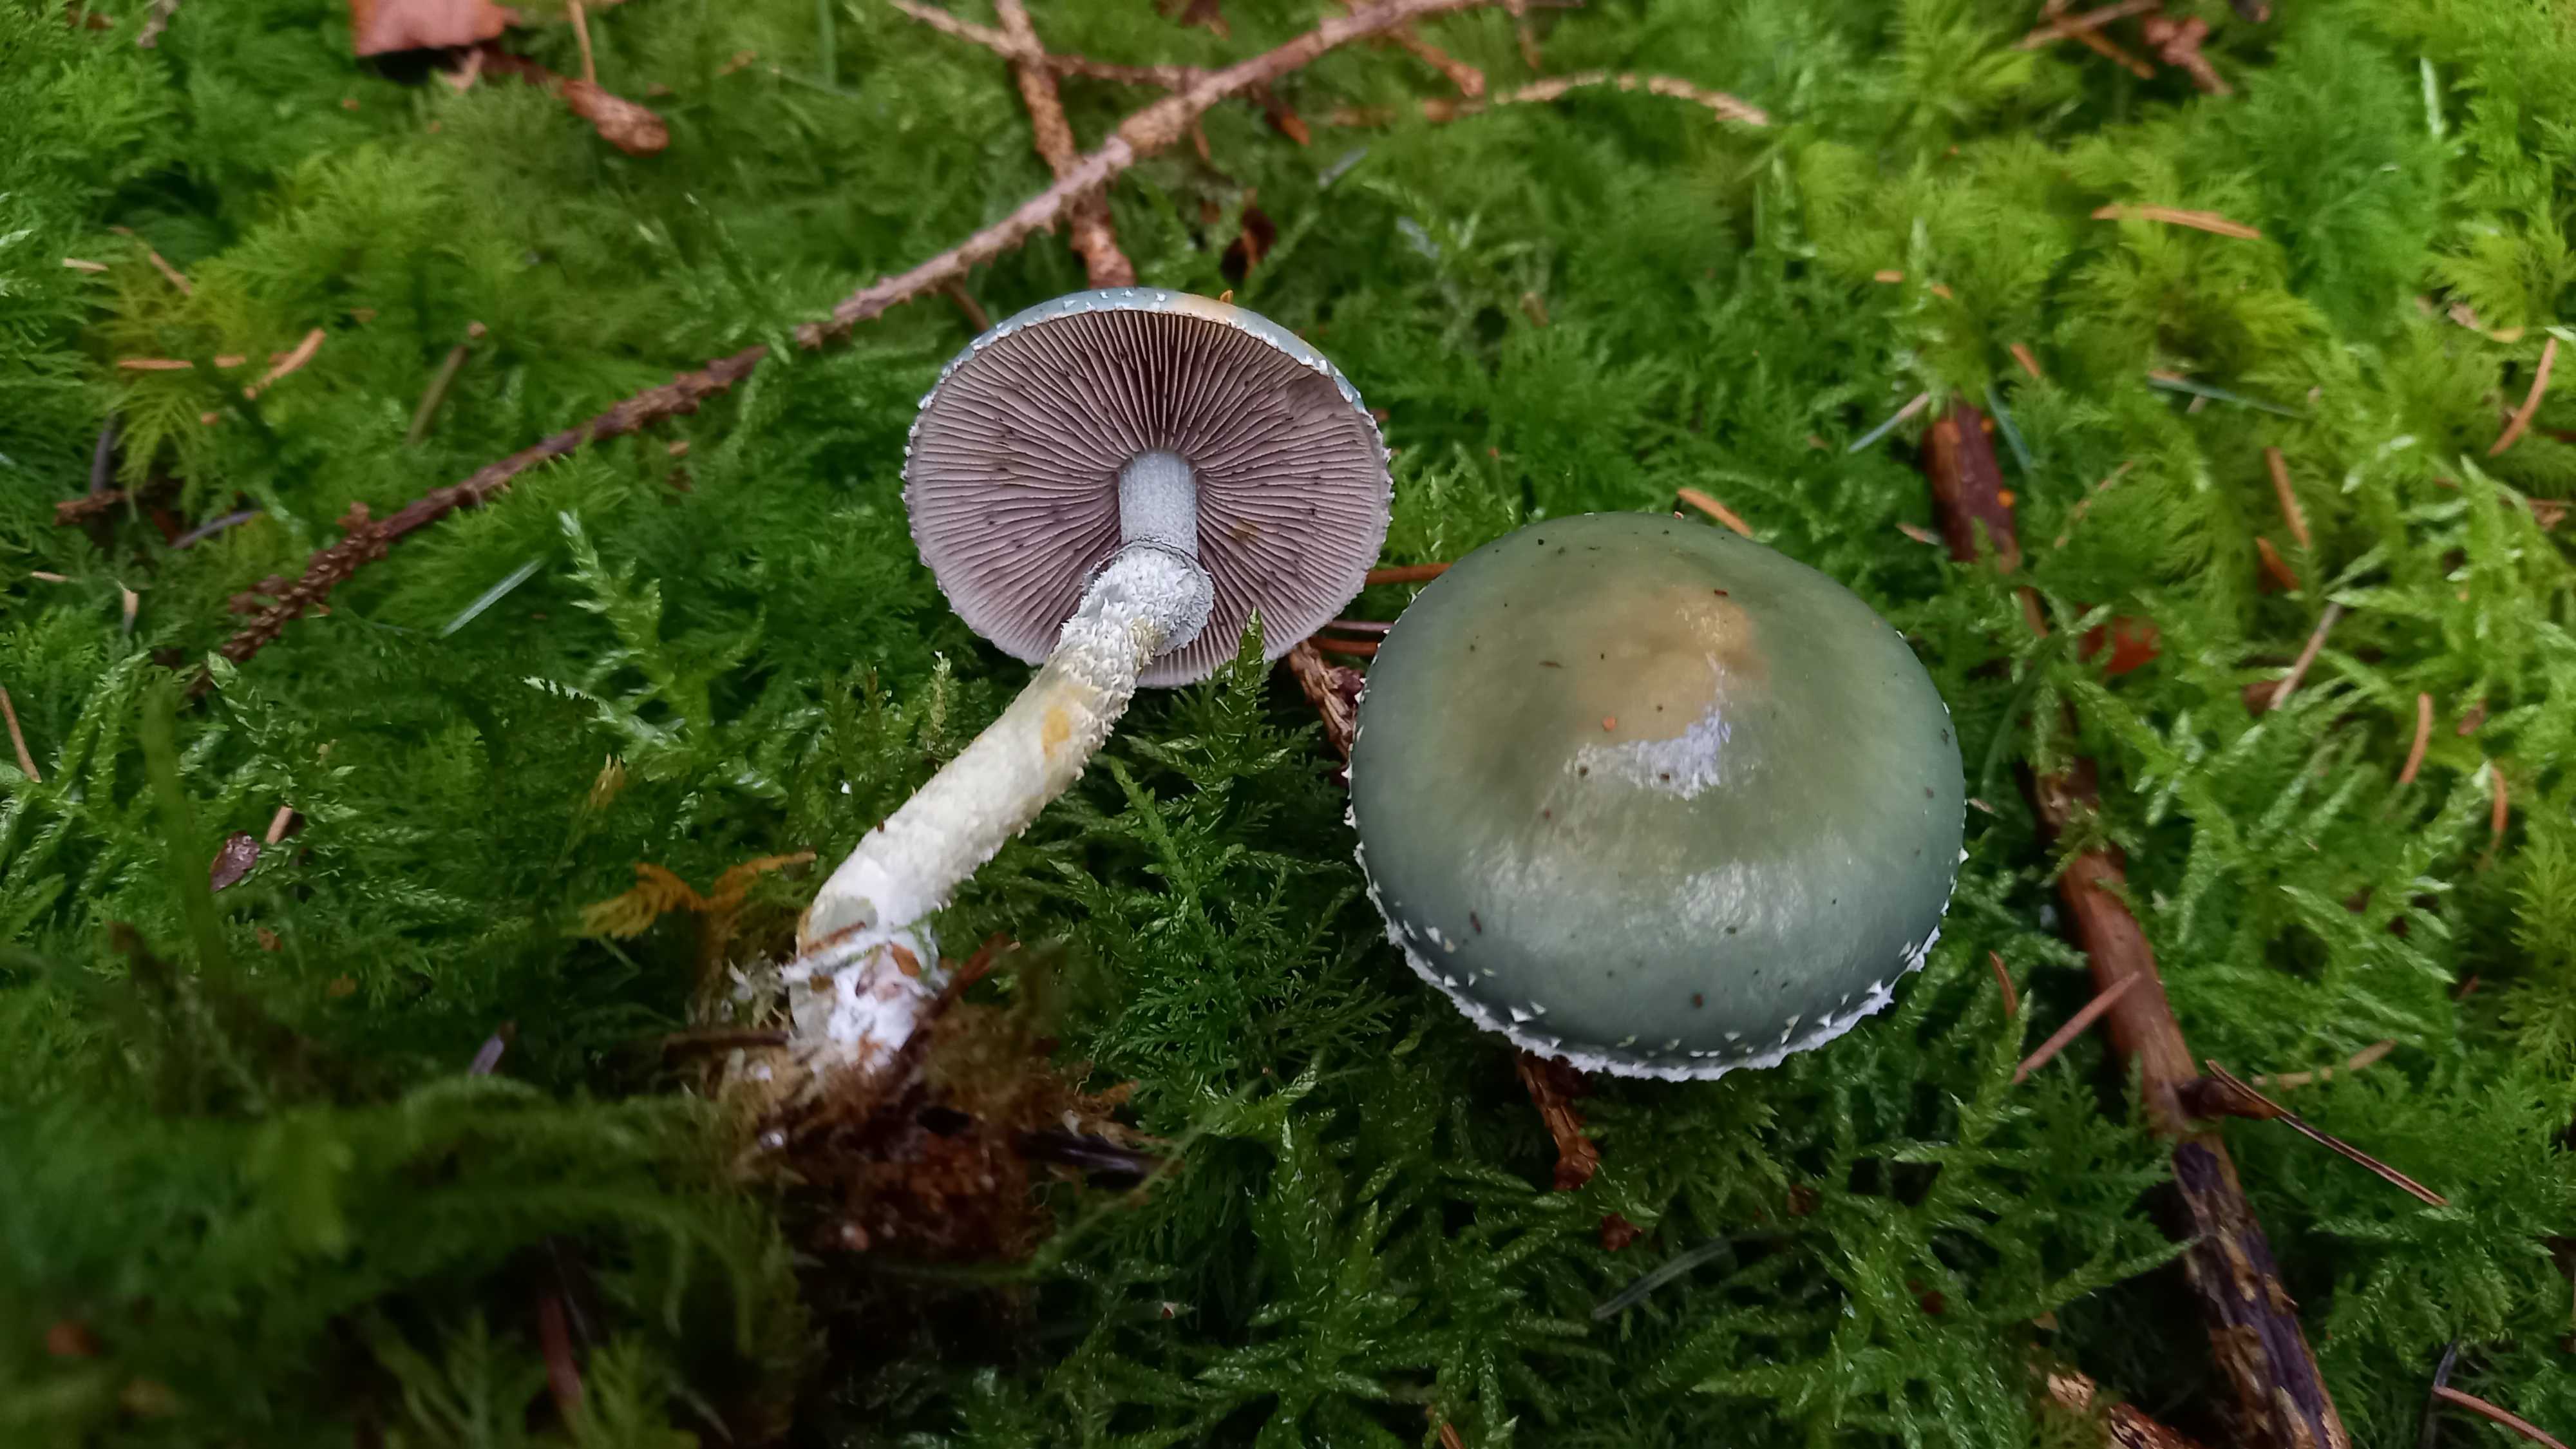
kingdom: Fungi
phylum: Basidiomycota
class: Agaricomycetes
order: Agaricales
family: Strophariaceae
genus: Stropharia
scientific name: Stropharia aeruginosa
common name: spanskgrøn bredblad
